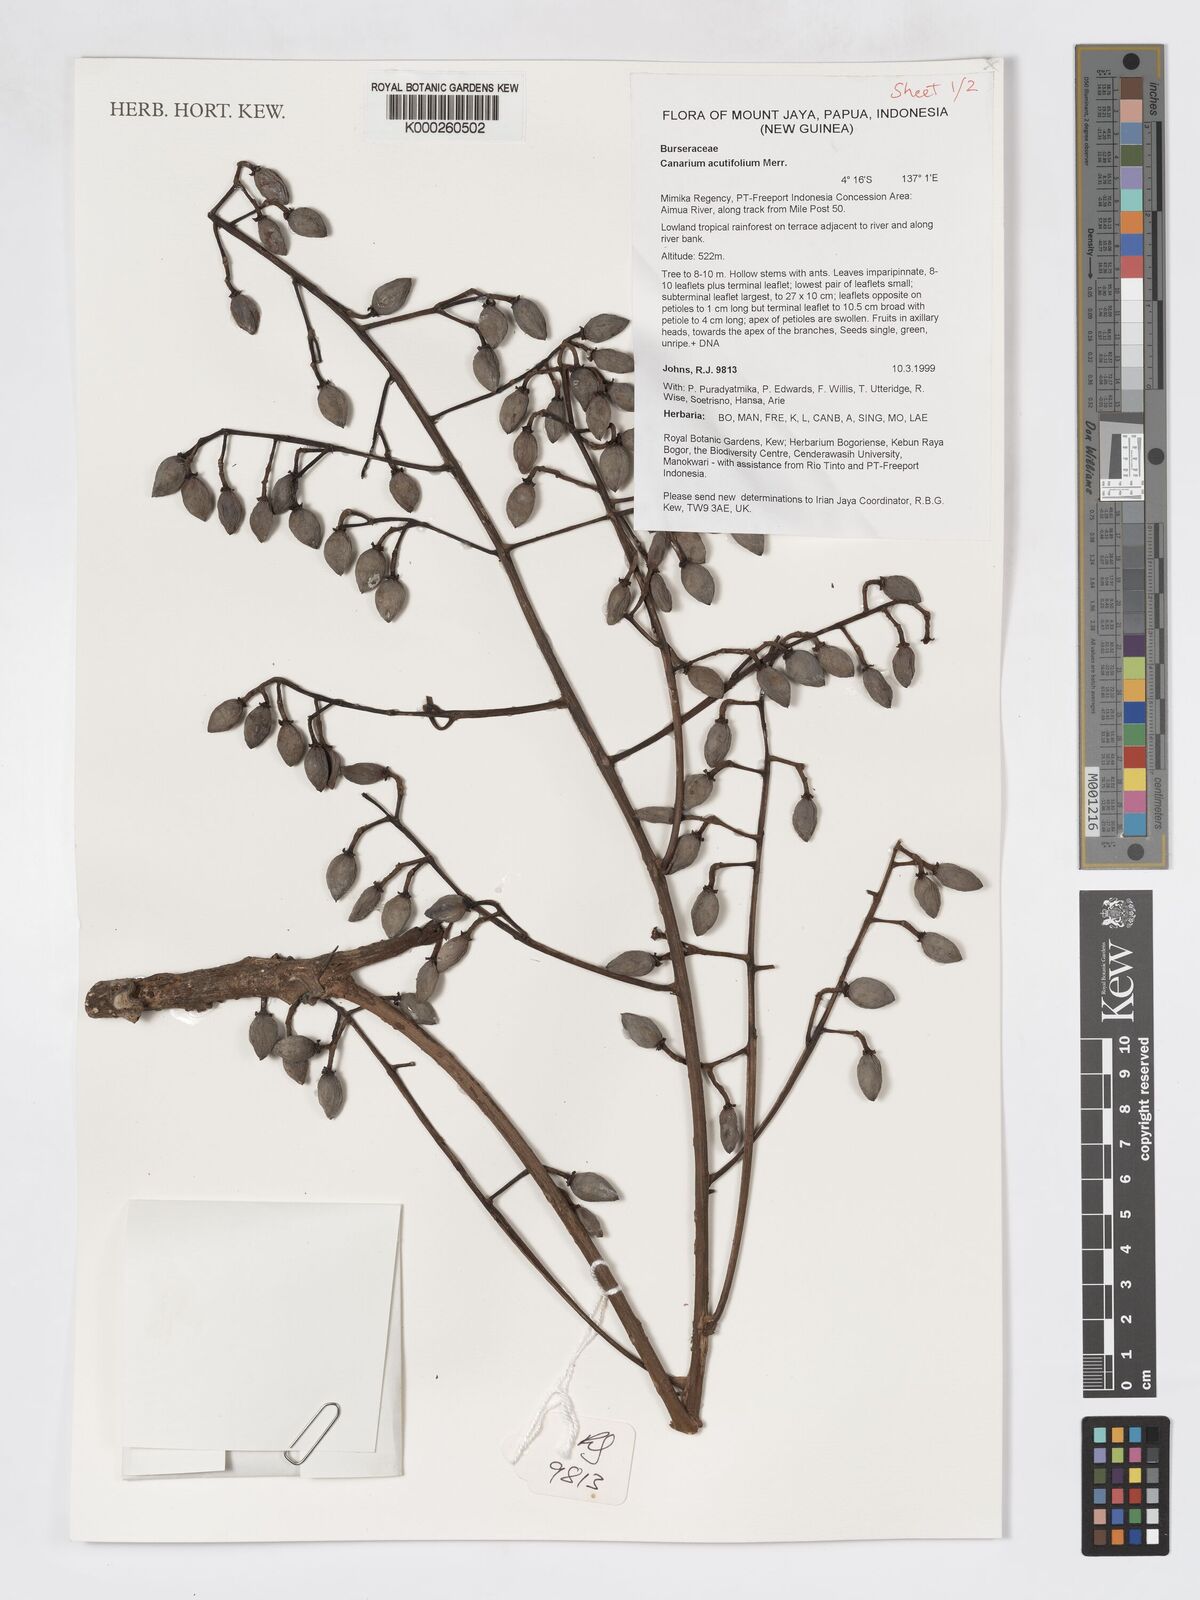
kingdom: Plantae
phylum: Tracheophyta
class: Magnoliopsida
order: Sapindales
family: Burseraceae
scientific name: Burseraceae
